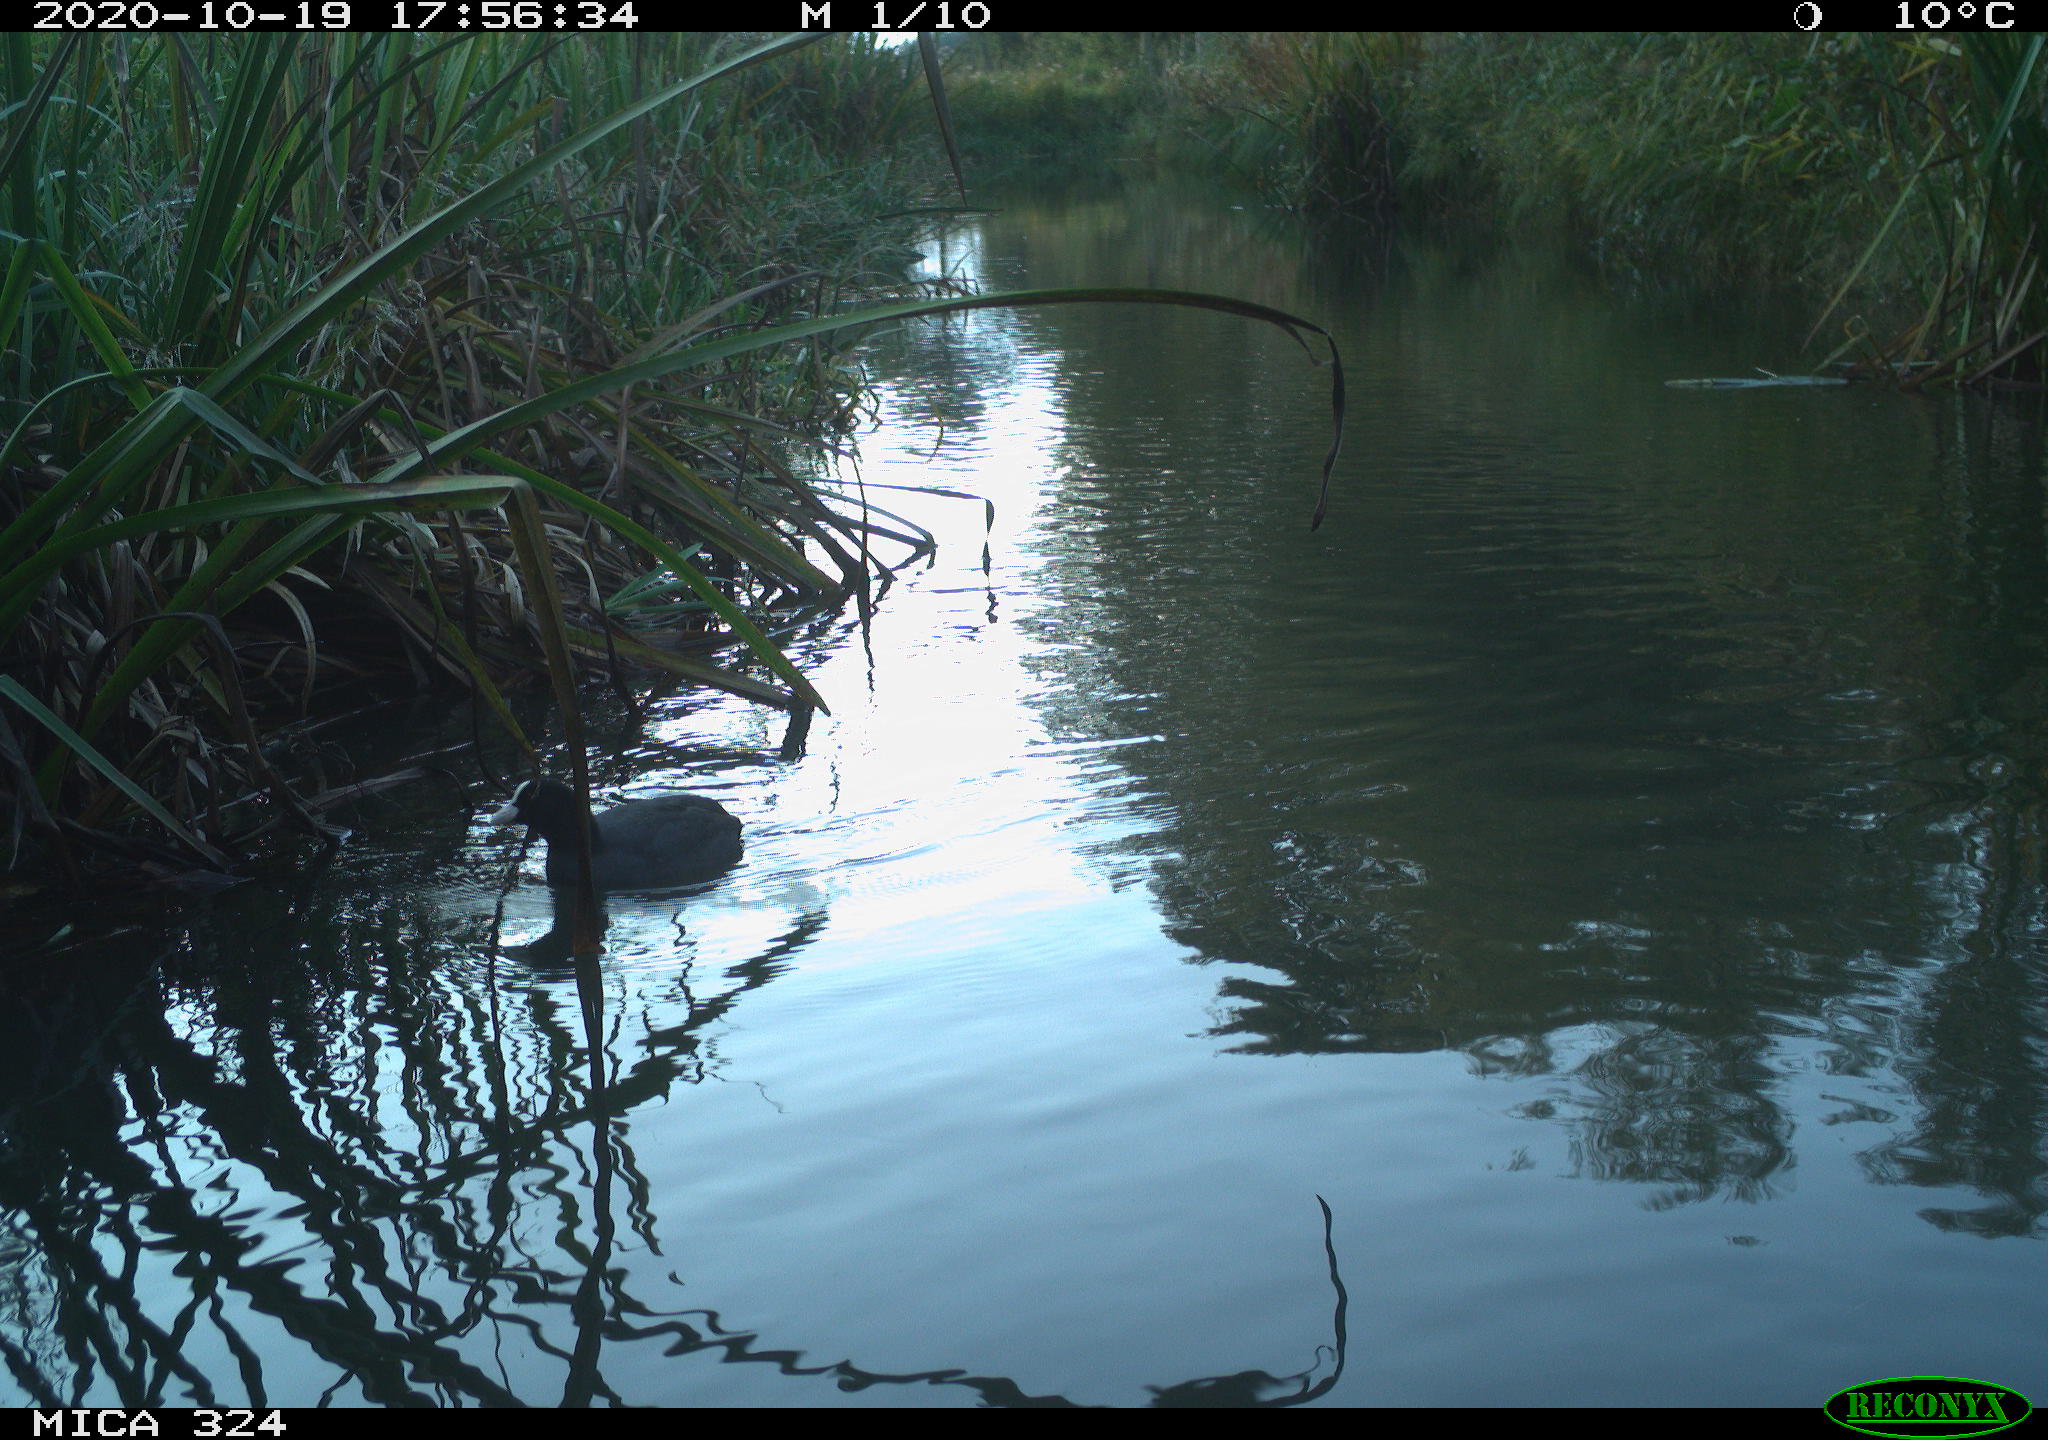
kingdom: Animalia
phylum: Chordata
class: Aves
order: Gruiformes
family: Rallidae
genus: Fulica
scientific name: Fulica atra
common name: Eurasian coot
